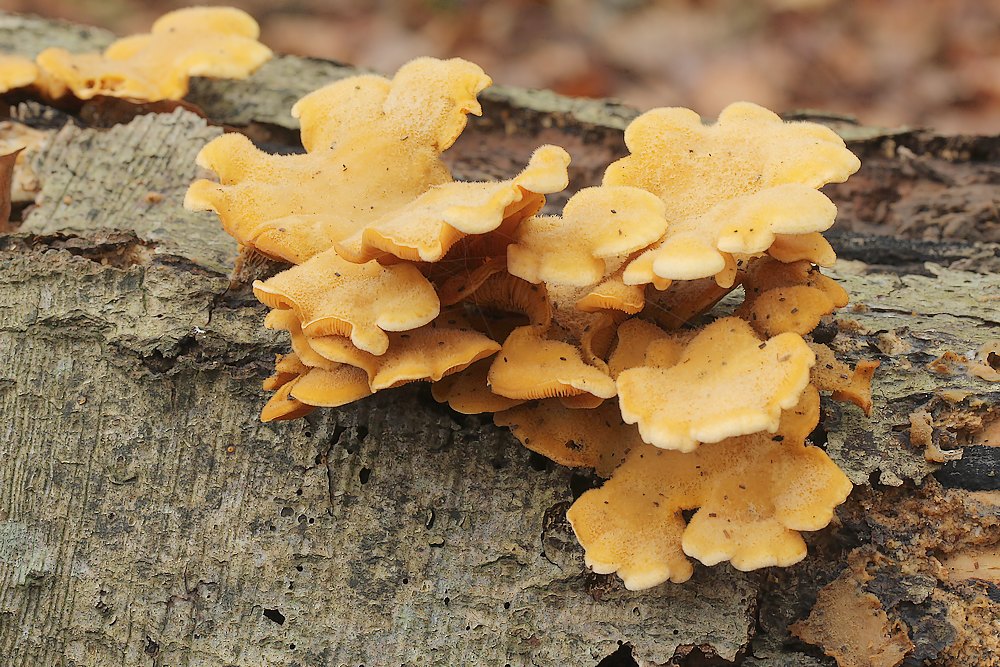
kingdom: Fungi
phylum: Basidiomycota
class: Agaricomycetes
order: Agaricales
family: Phyllotopsidaceae
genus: Phyllotopsis
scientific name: Phyllotopsis nidulans
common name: okkerblad
